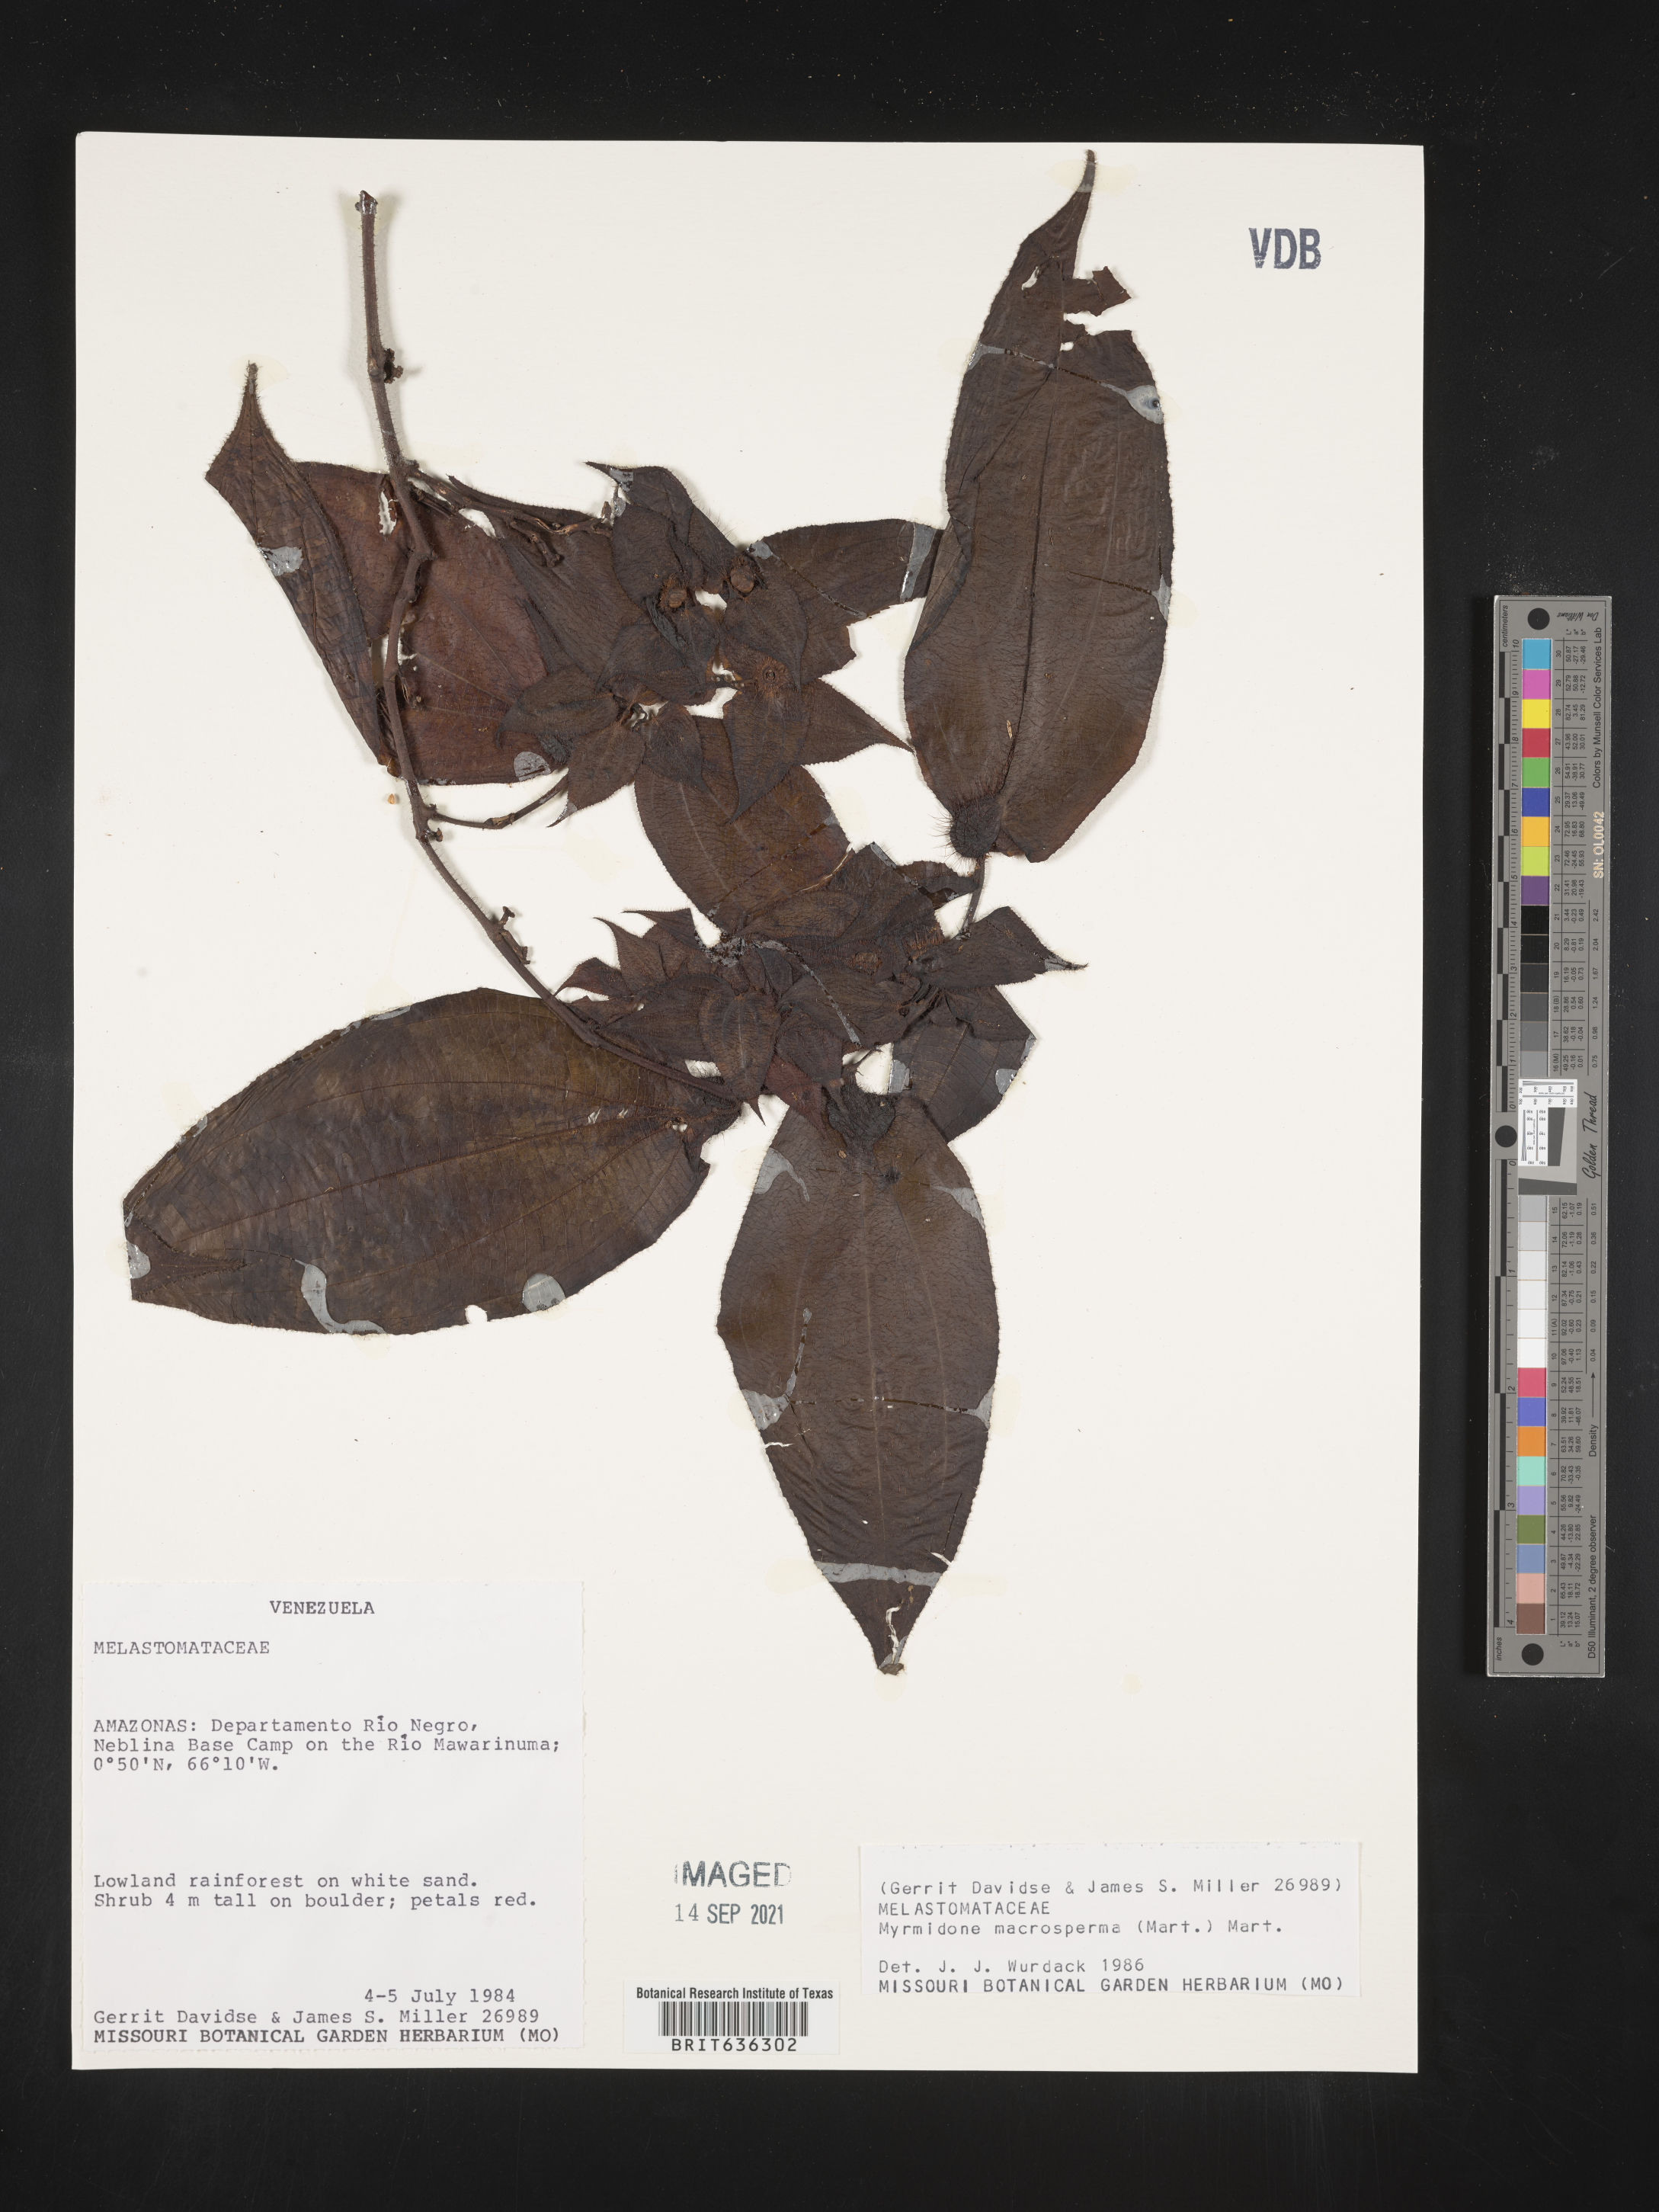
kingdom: Plantae
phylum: Tracheophyta
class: Magnoliopsida
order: Myrtales
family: Melastomataceae
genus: Myrmidone
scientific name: Myrmidone
